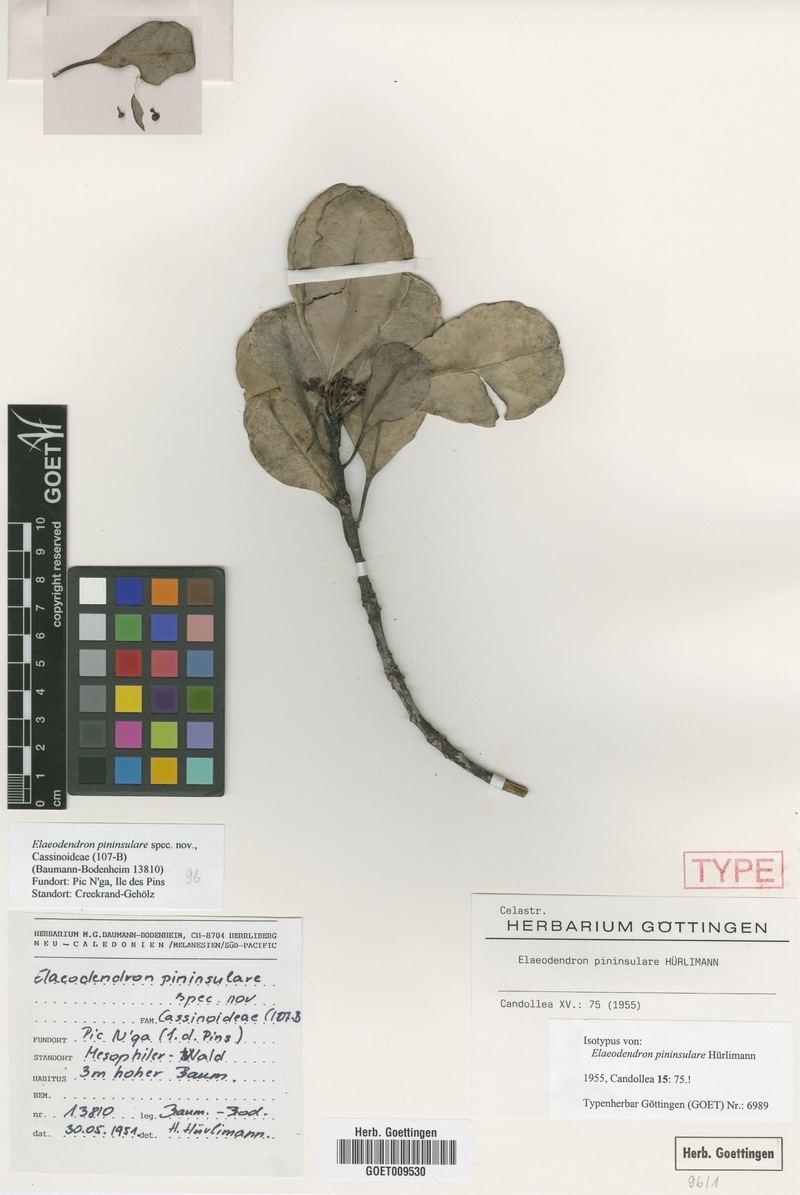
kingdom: Plantae
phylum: Tracheophyta
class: Magnoliopsida
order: Celastrales
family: Celastraceae
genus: Elaeodendron
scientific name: Elaeodendron pininsulare
